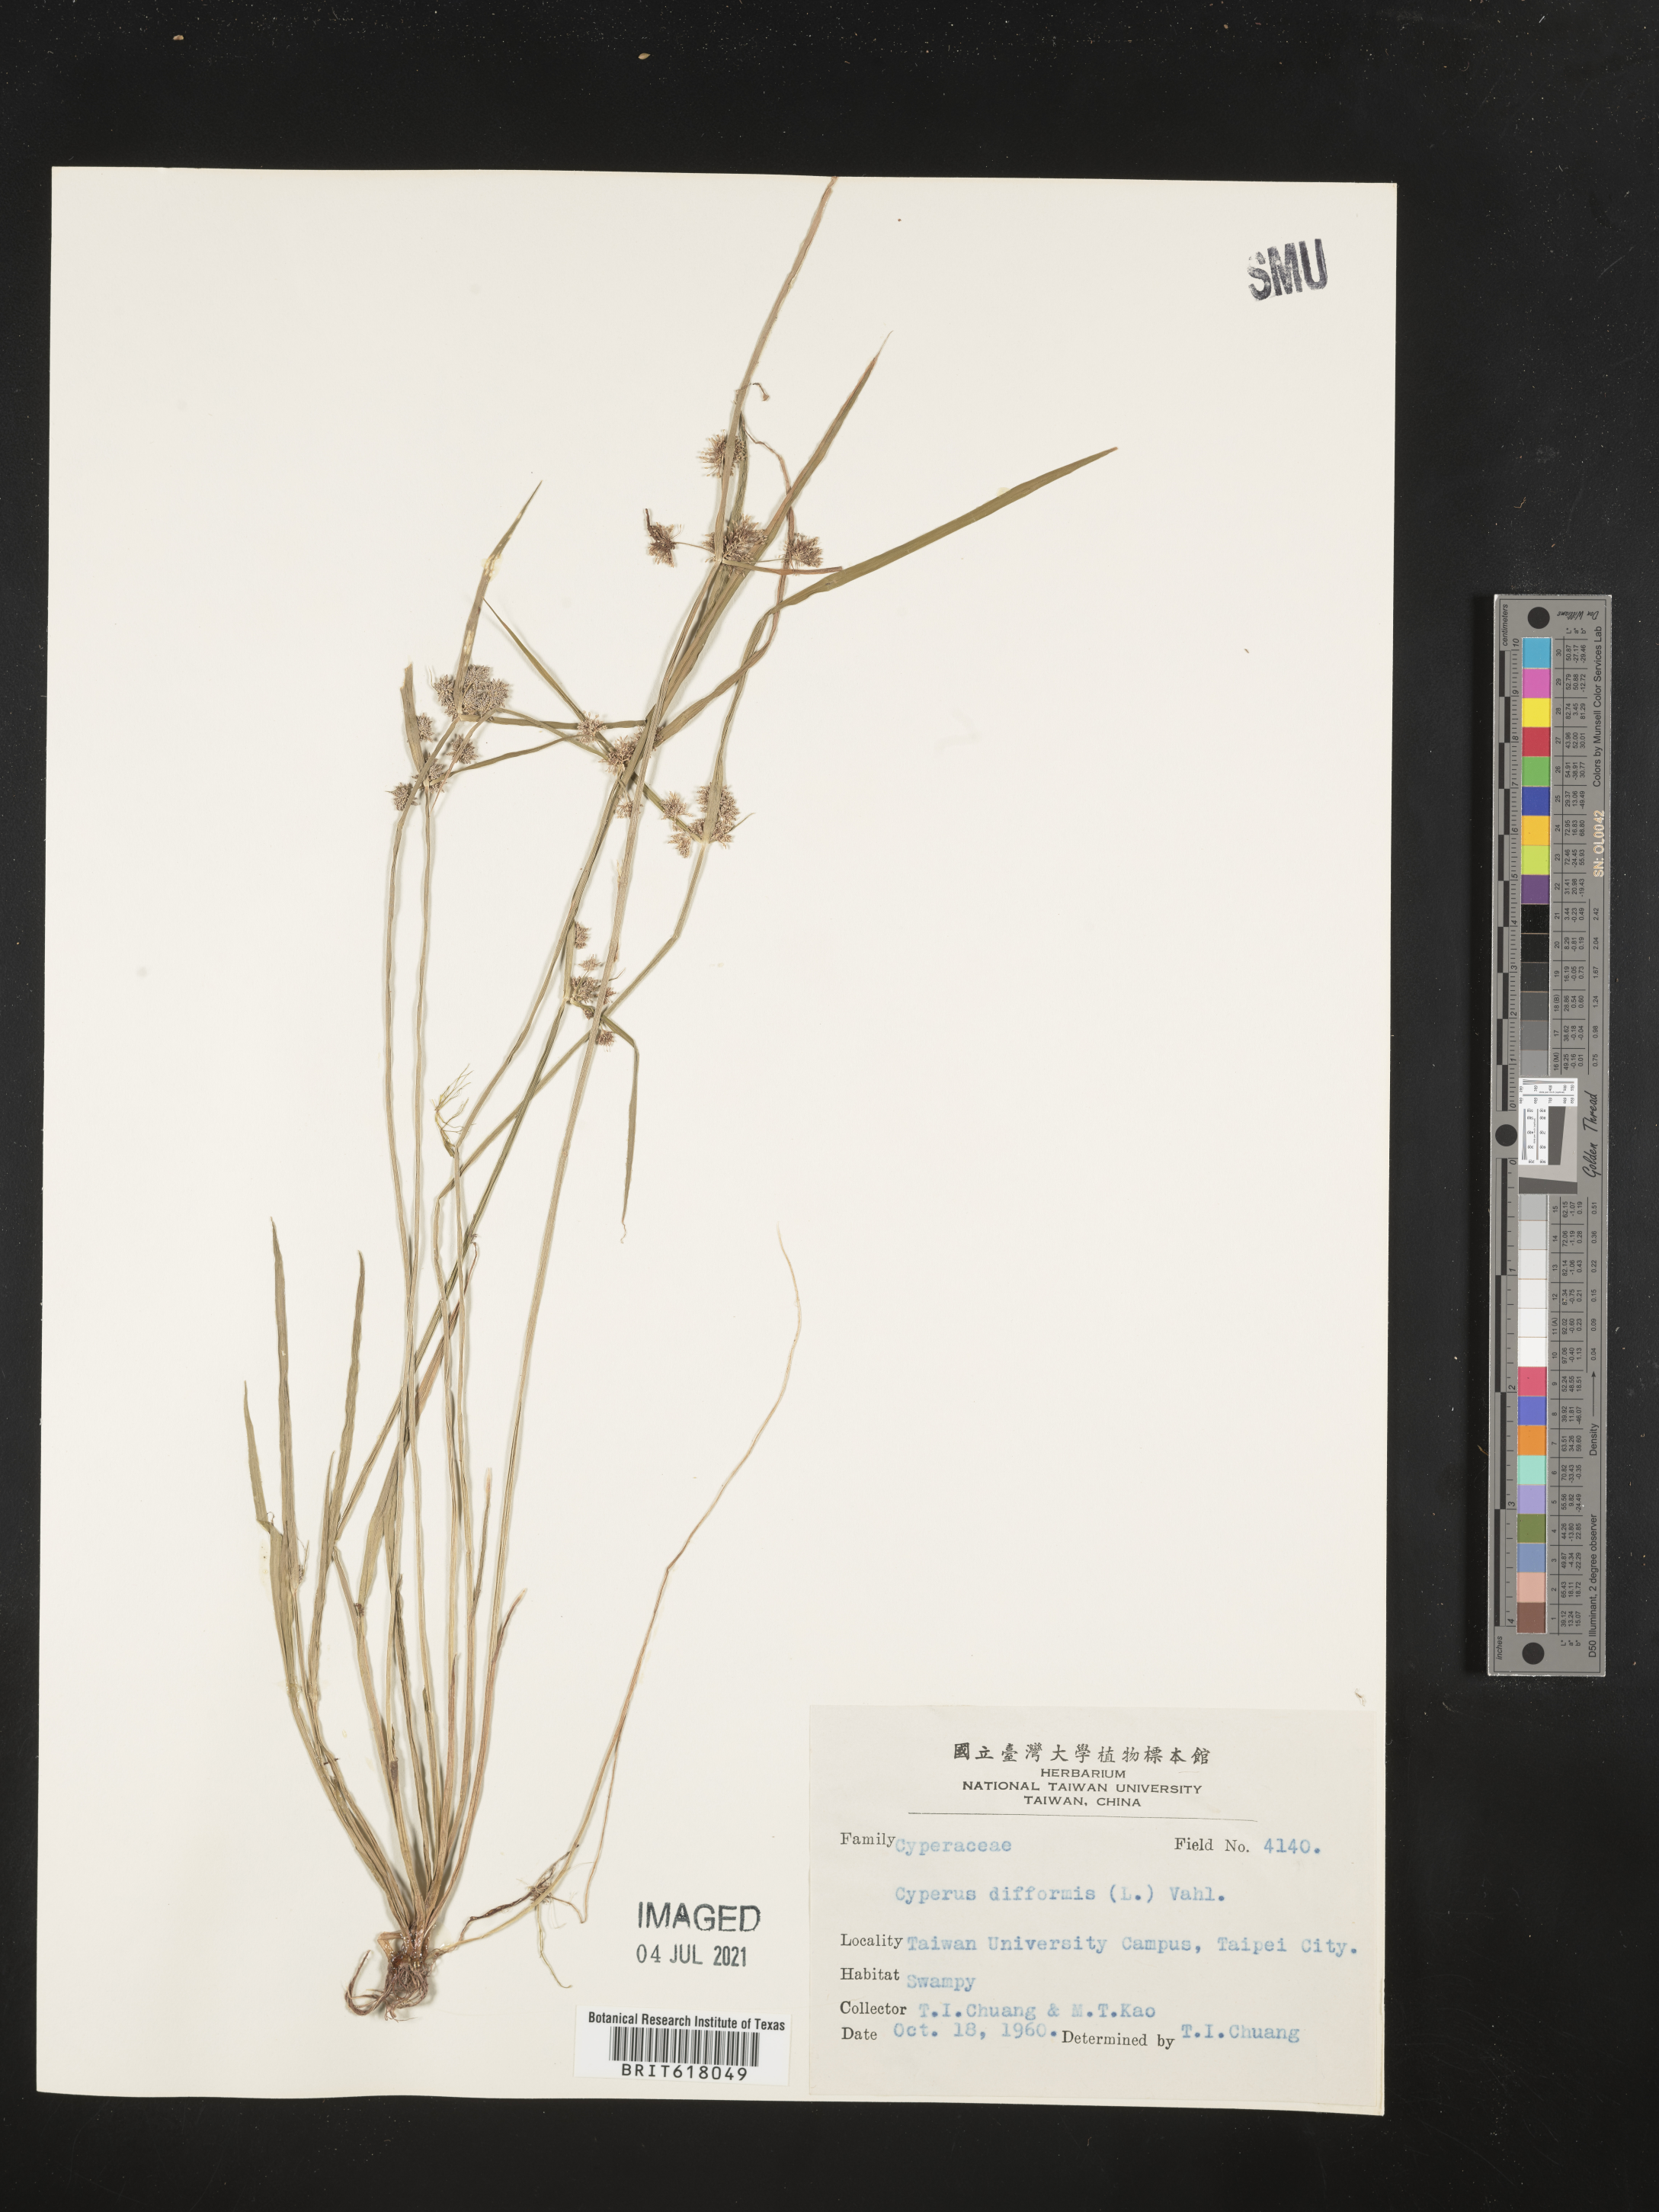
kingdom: Plantae
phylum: Tracheophyta
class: Liliopsida
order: Poales
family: Cyperaceae
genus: Cyperus
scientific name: Cyperus difformis
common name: Variable flatsedge
